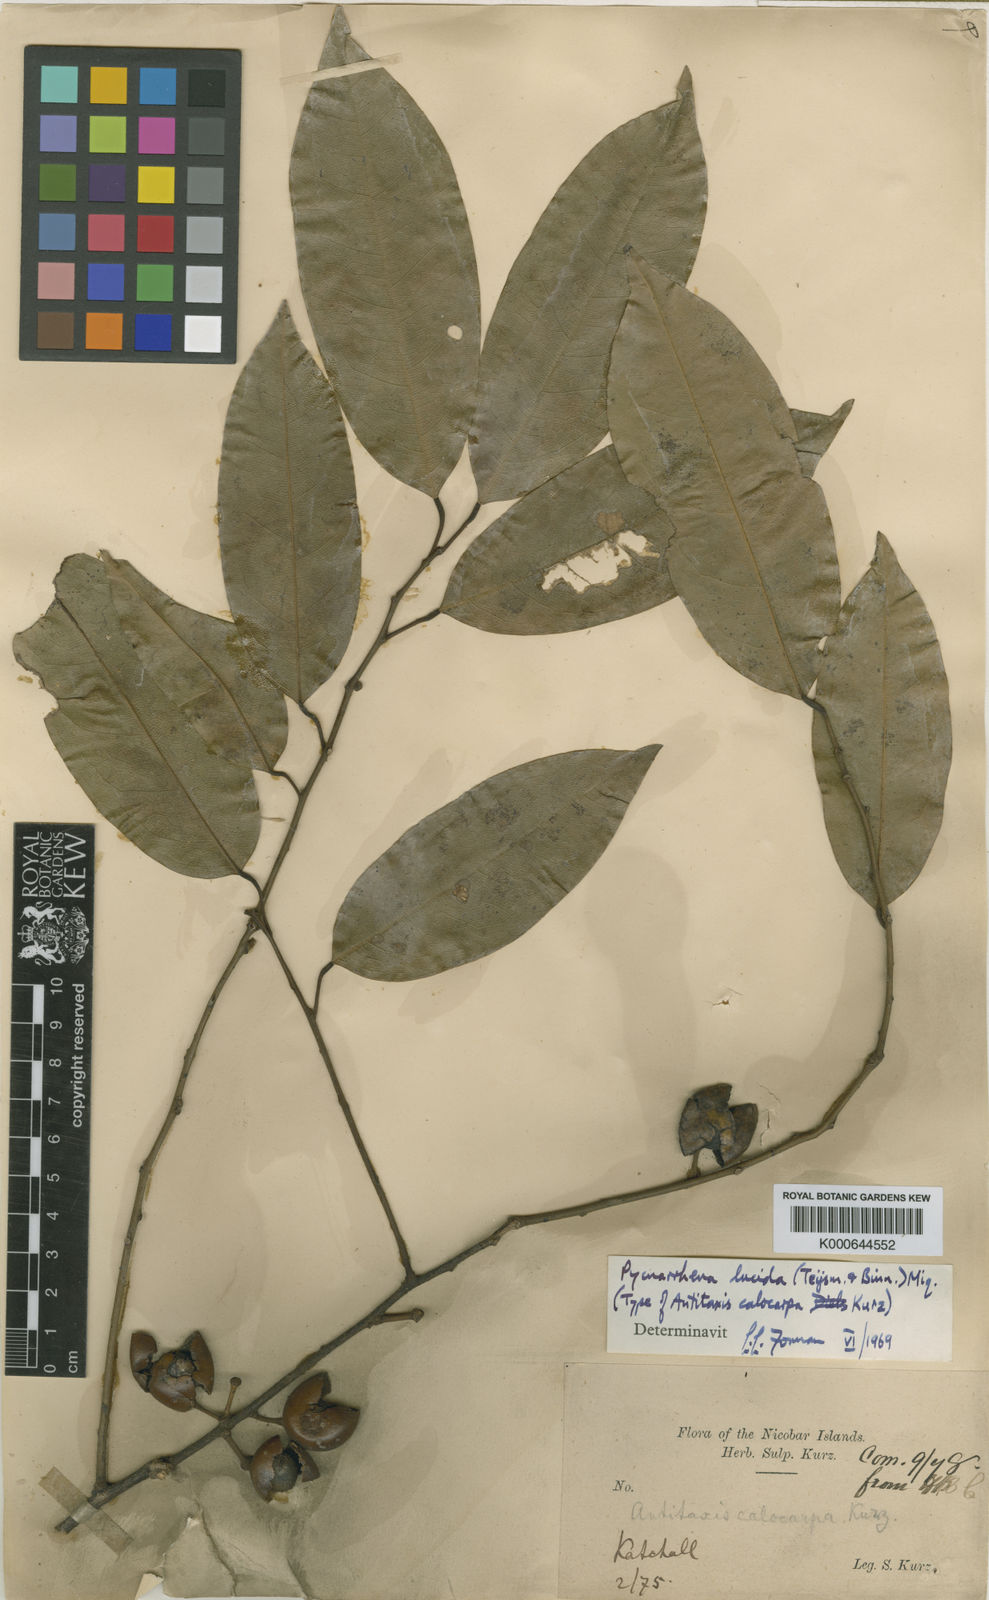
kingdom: Plantae
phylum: Tracheophyta
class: Magnoliopsida
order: Ranunculales
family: Menispermaceae
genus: Pycnarrhena
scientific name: Pycnarrhena lucida
